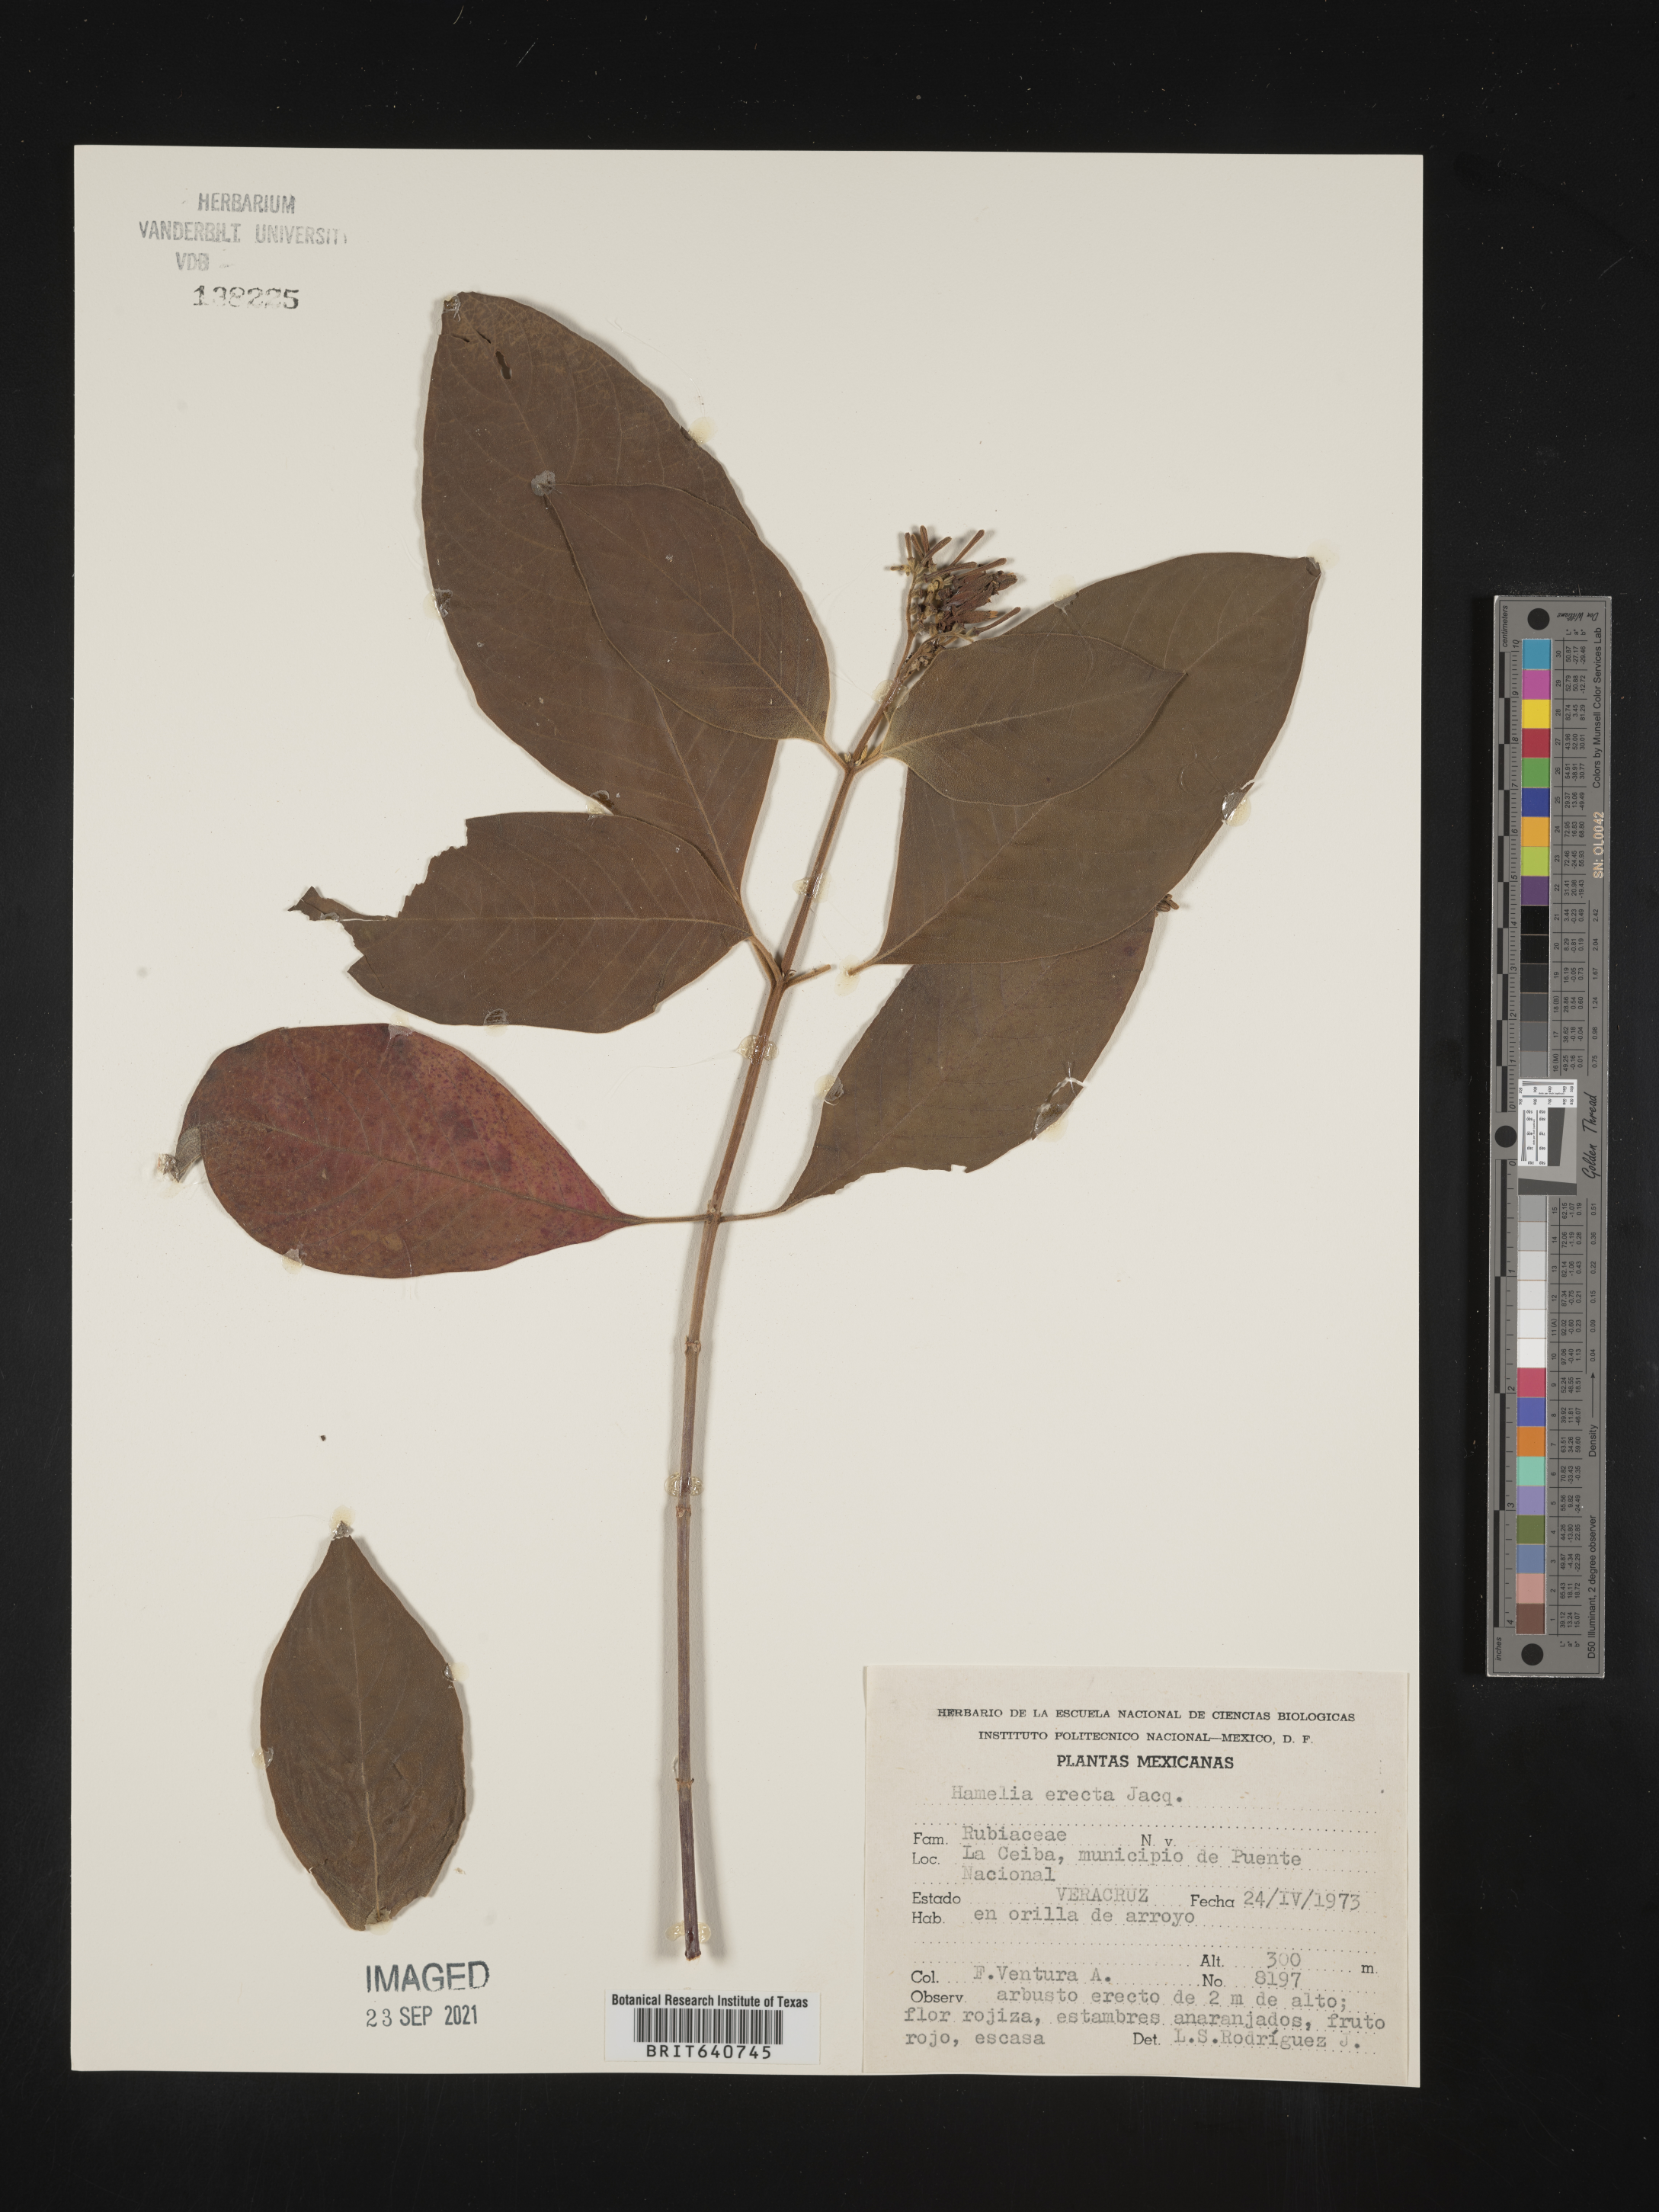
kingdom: Plantae
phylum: Tracheophyta
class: Magnoliopsida
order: Gentianales
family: Rubiaceae
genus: Hamelia
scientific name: Hamelia
